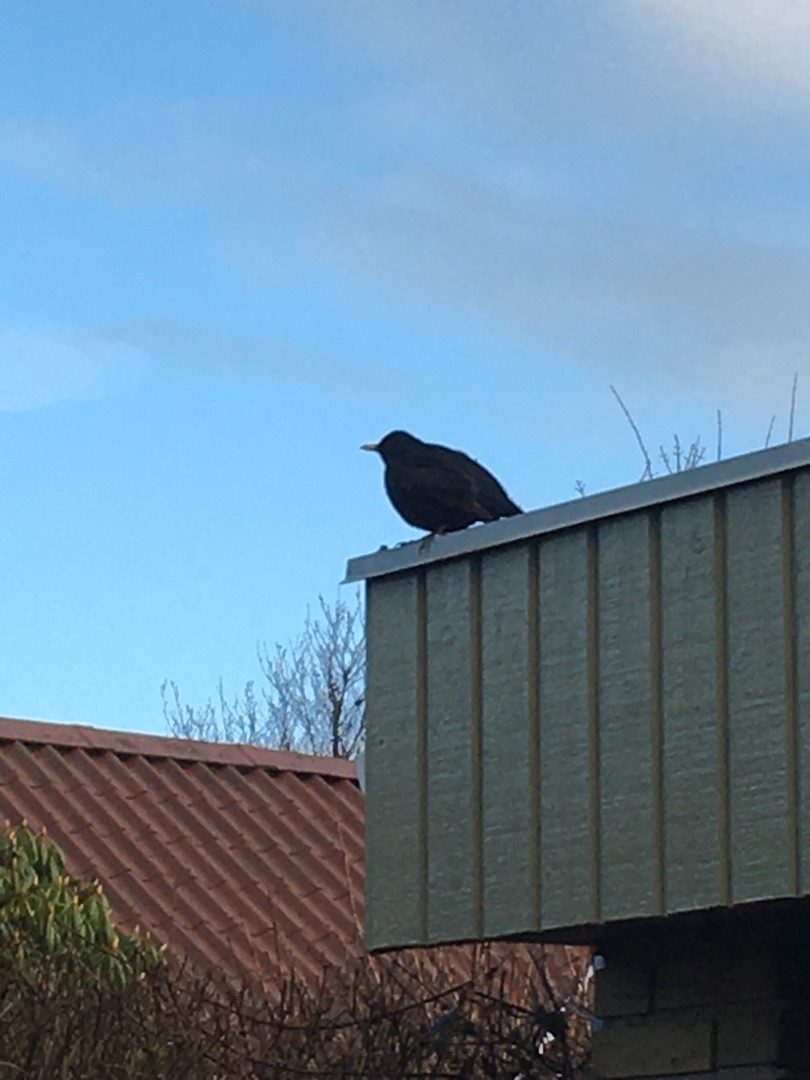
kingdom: Animalia
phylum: Chordata
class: Aves
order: Passeriformes
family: Turdidae
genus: Turdus
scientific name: Turdus merula
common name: Solsort
